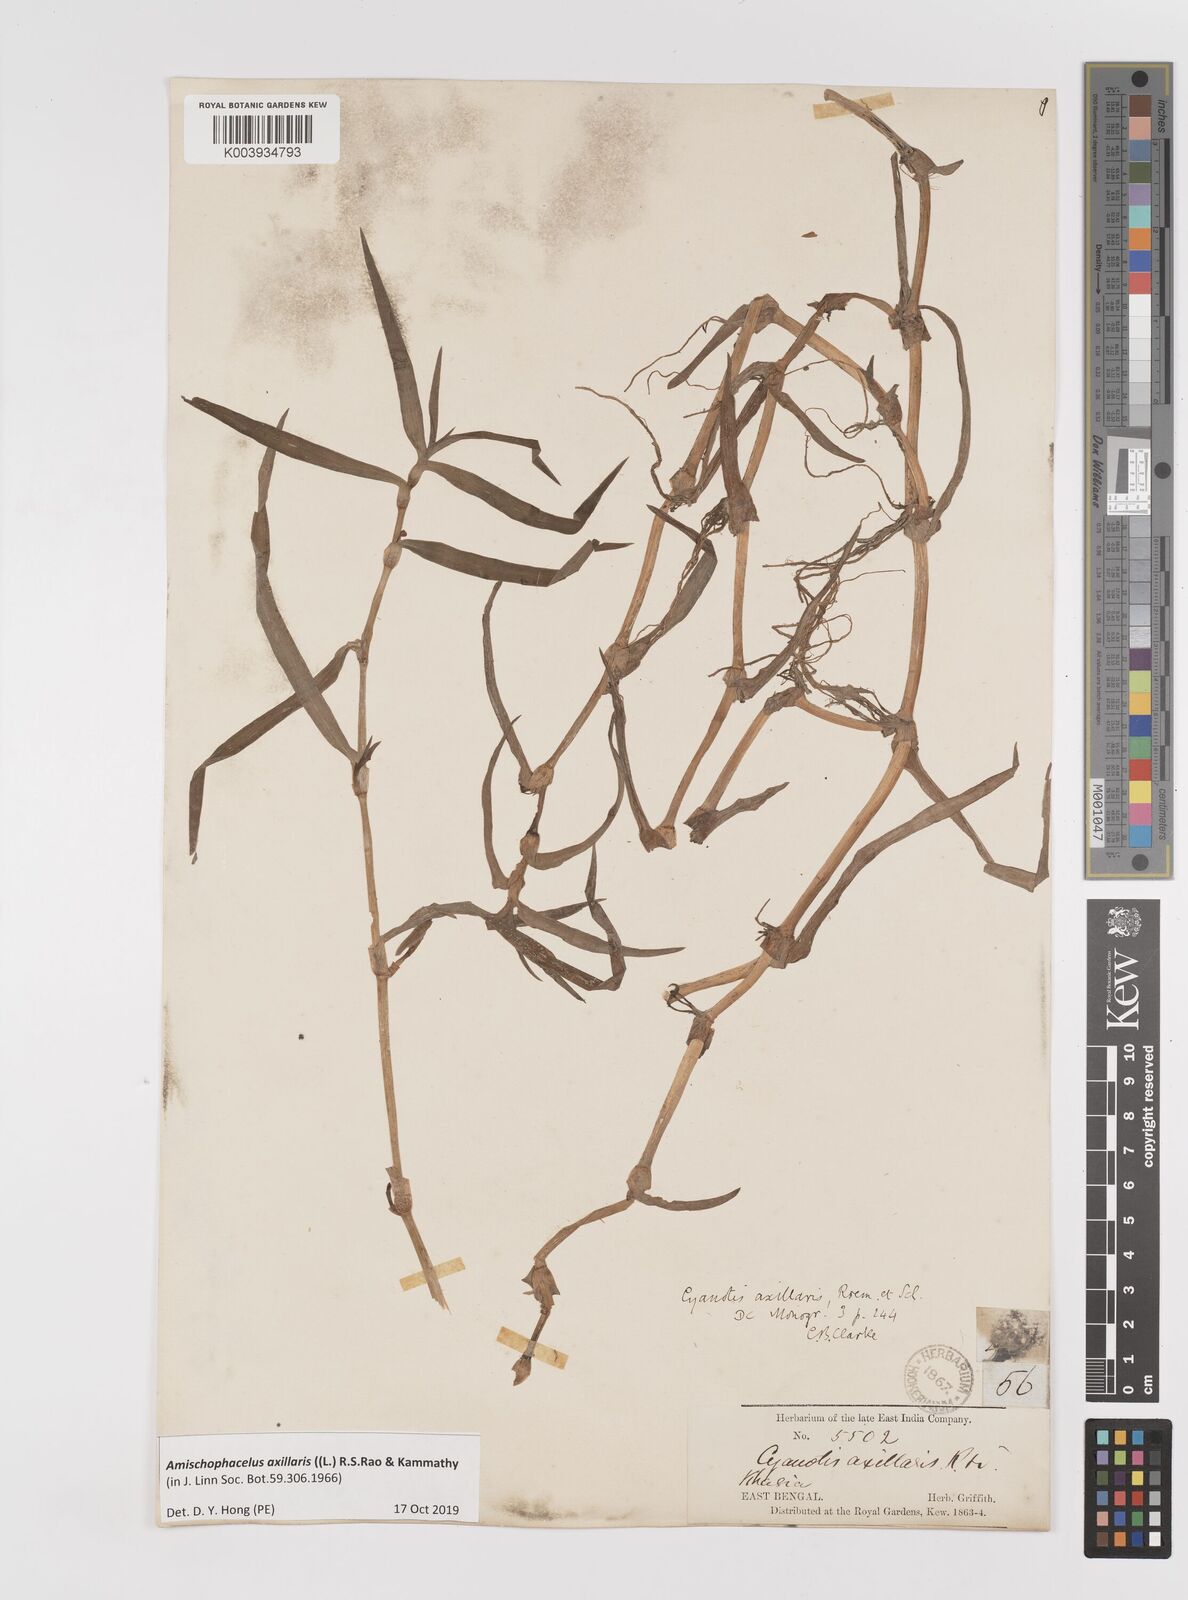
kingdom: Plantae
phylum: Tracheophyta
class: Liliopsida
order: Commelinales
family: Commelinaceae
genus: Cyanotis
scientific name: Cyanotis axillaris
